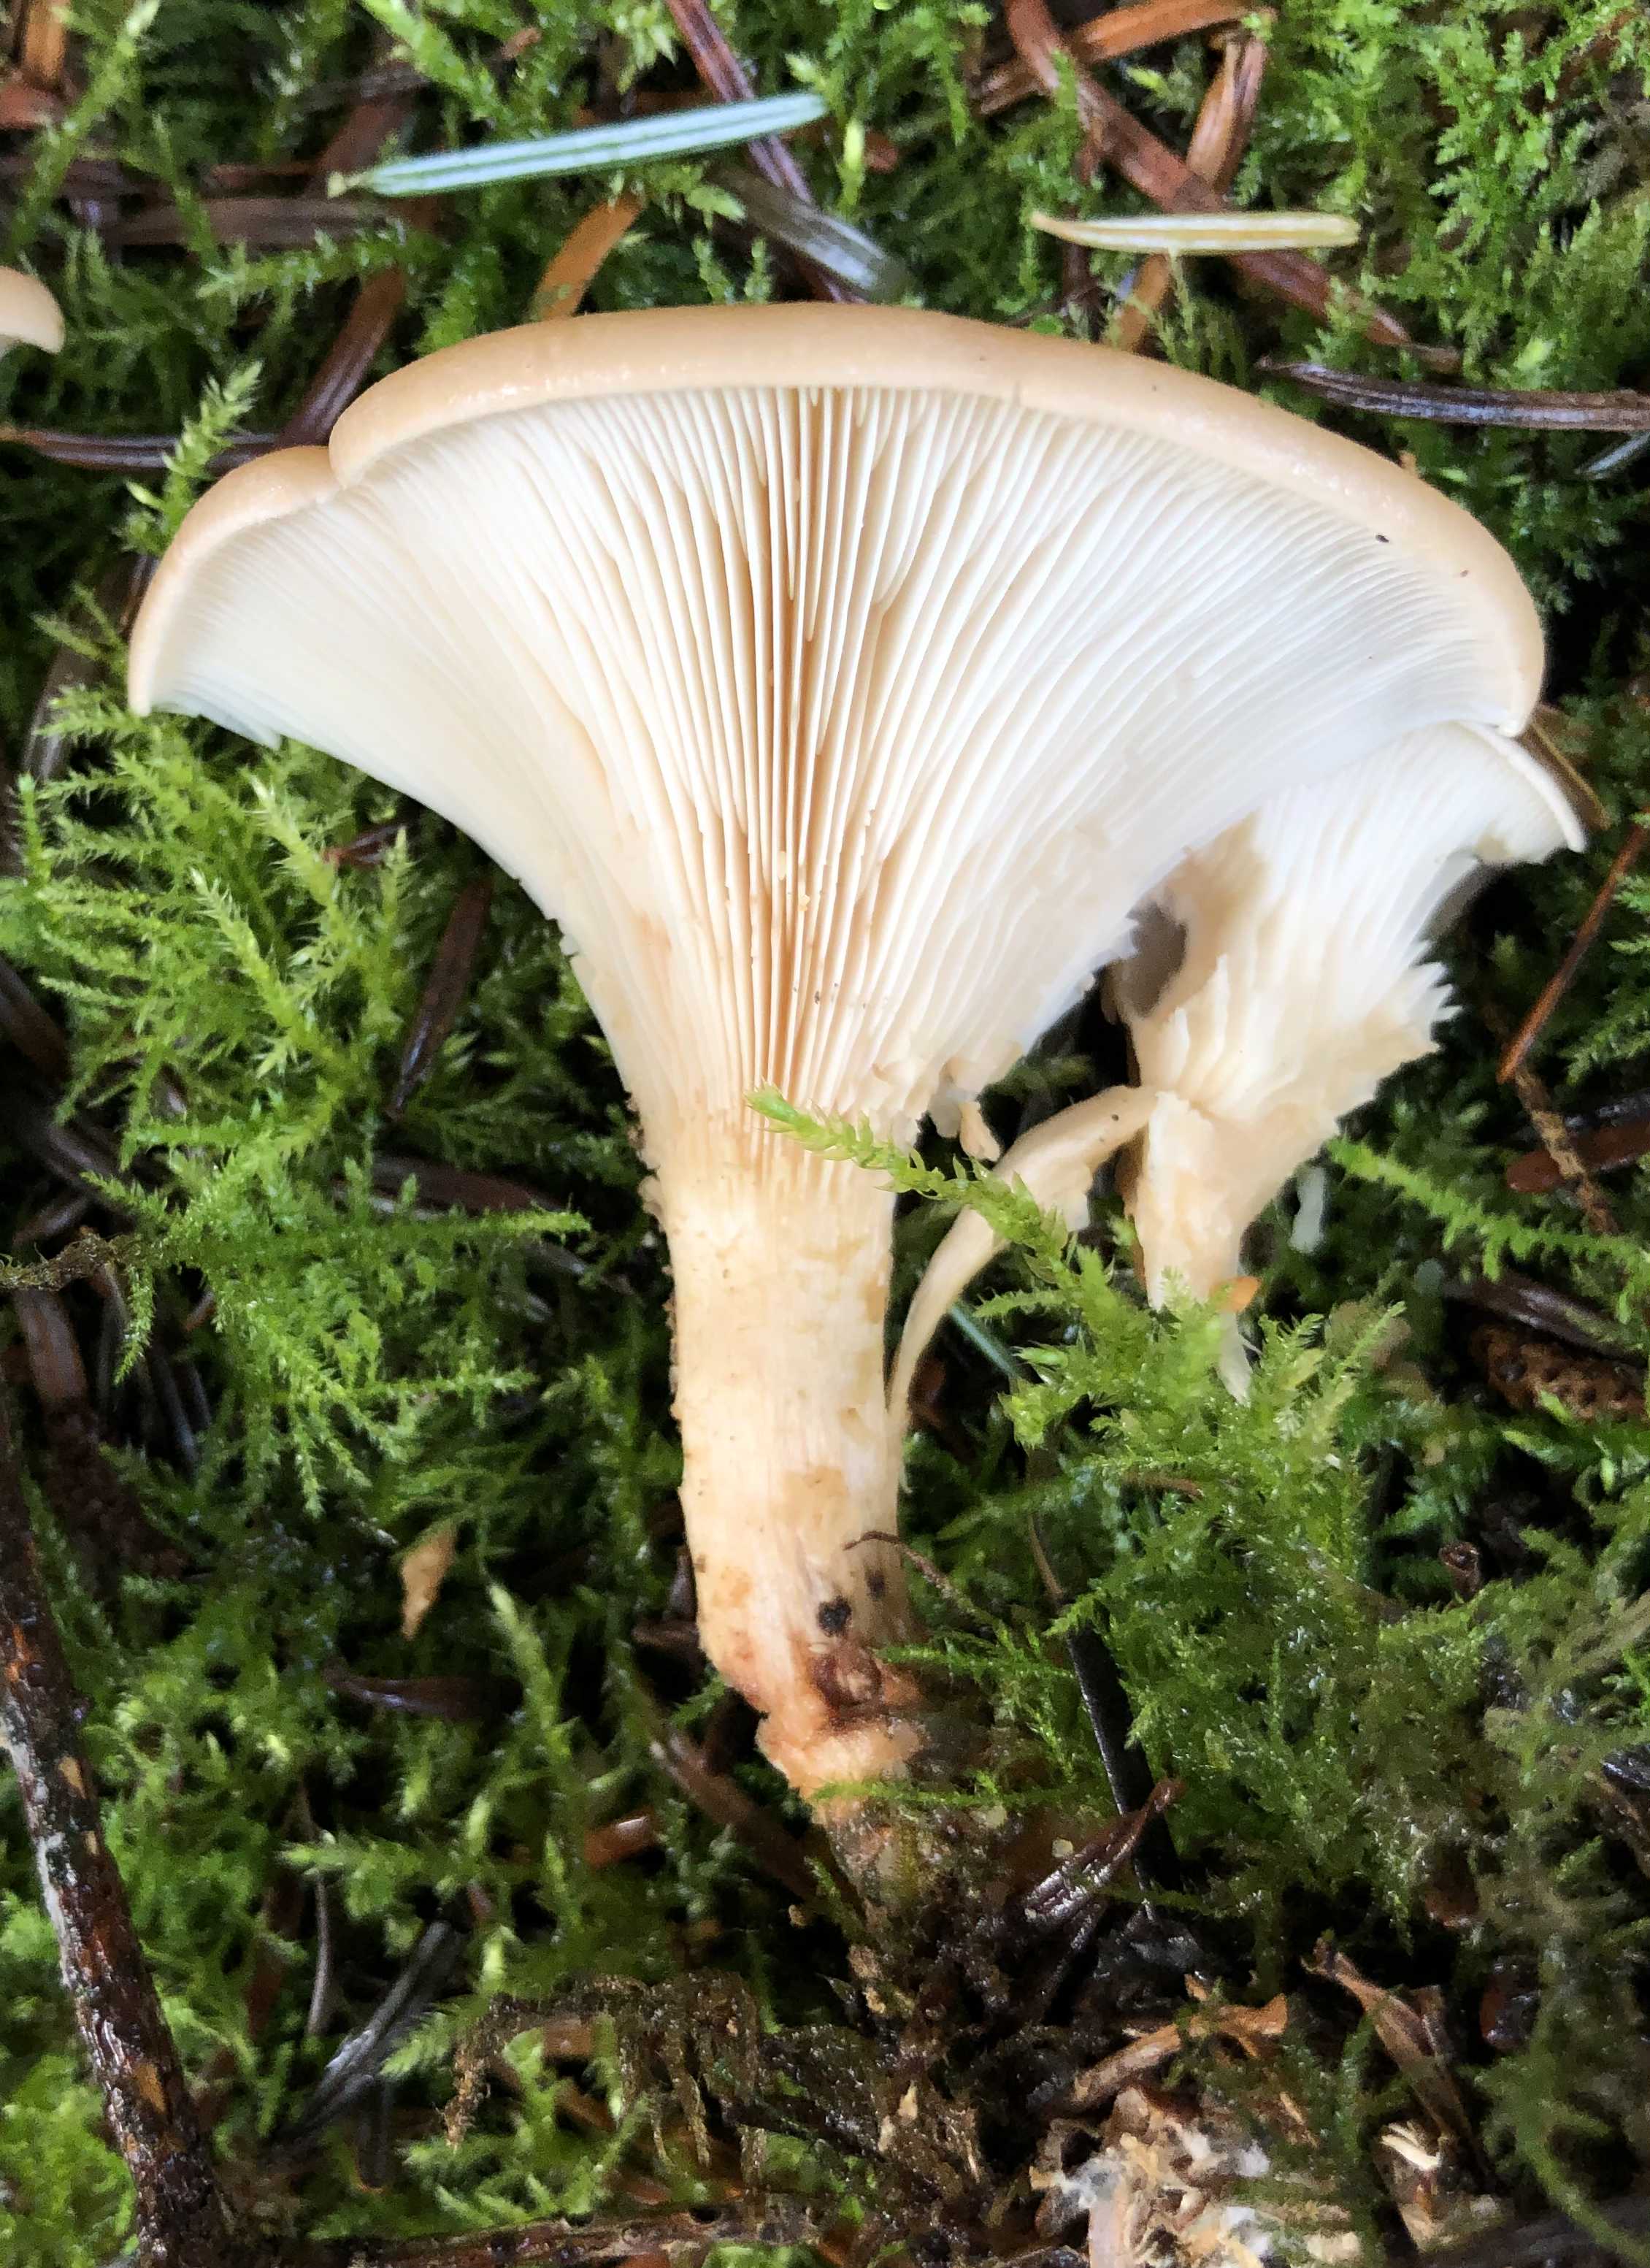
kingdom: Fungi
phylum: Basidiomycota
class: Agaricomycetes
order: Agaricales
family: Tricholomataceae
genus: Paralepista
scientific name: Paralepista flaccida
